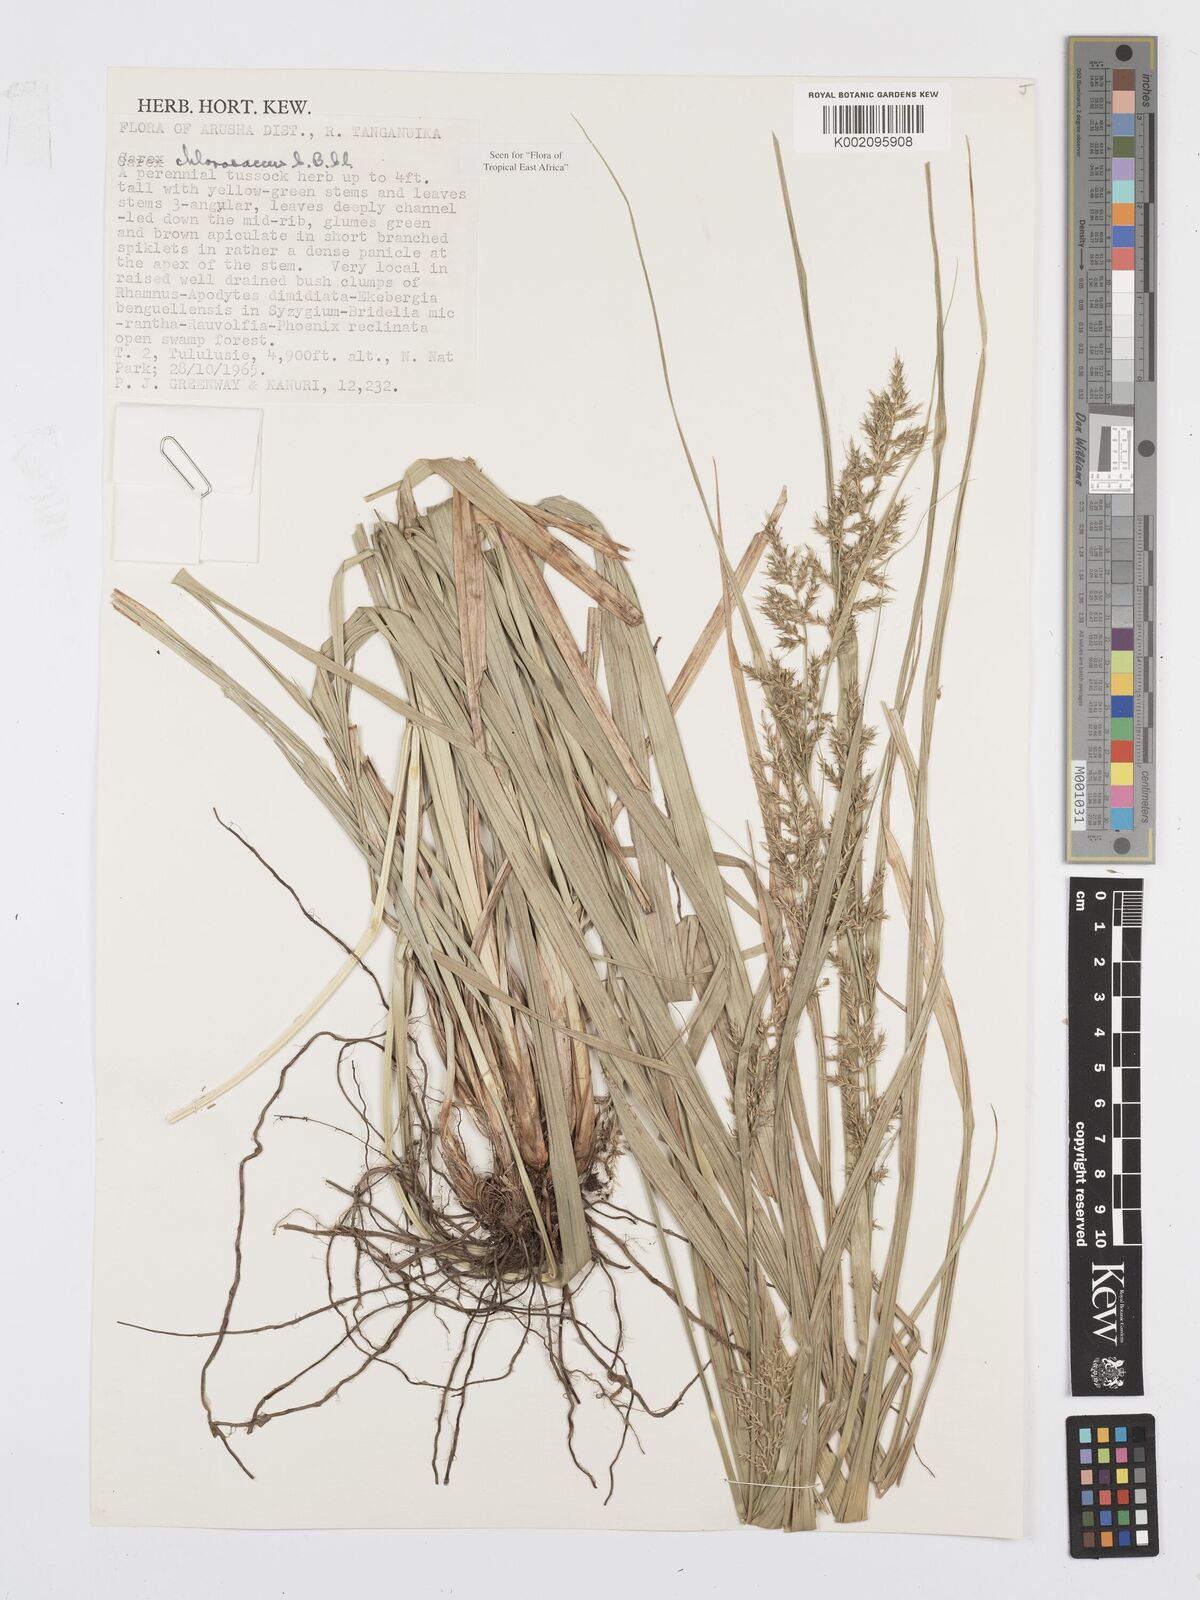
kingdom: Plantae
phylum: Tracheophyta
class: Liliopsida
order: Poales
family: Cyperaceae
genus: Carex
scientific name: Carex chlorosaccus
